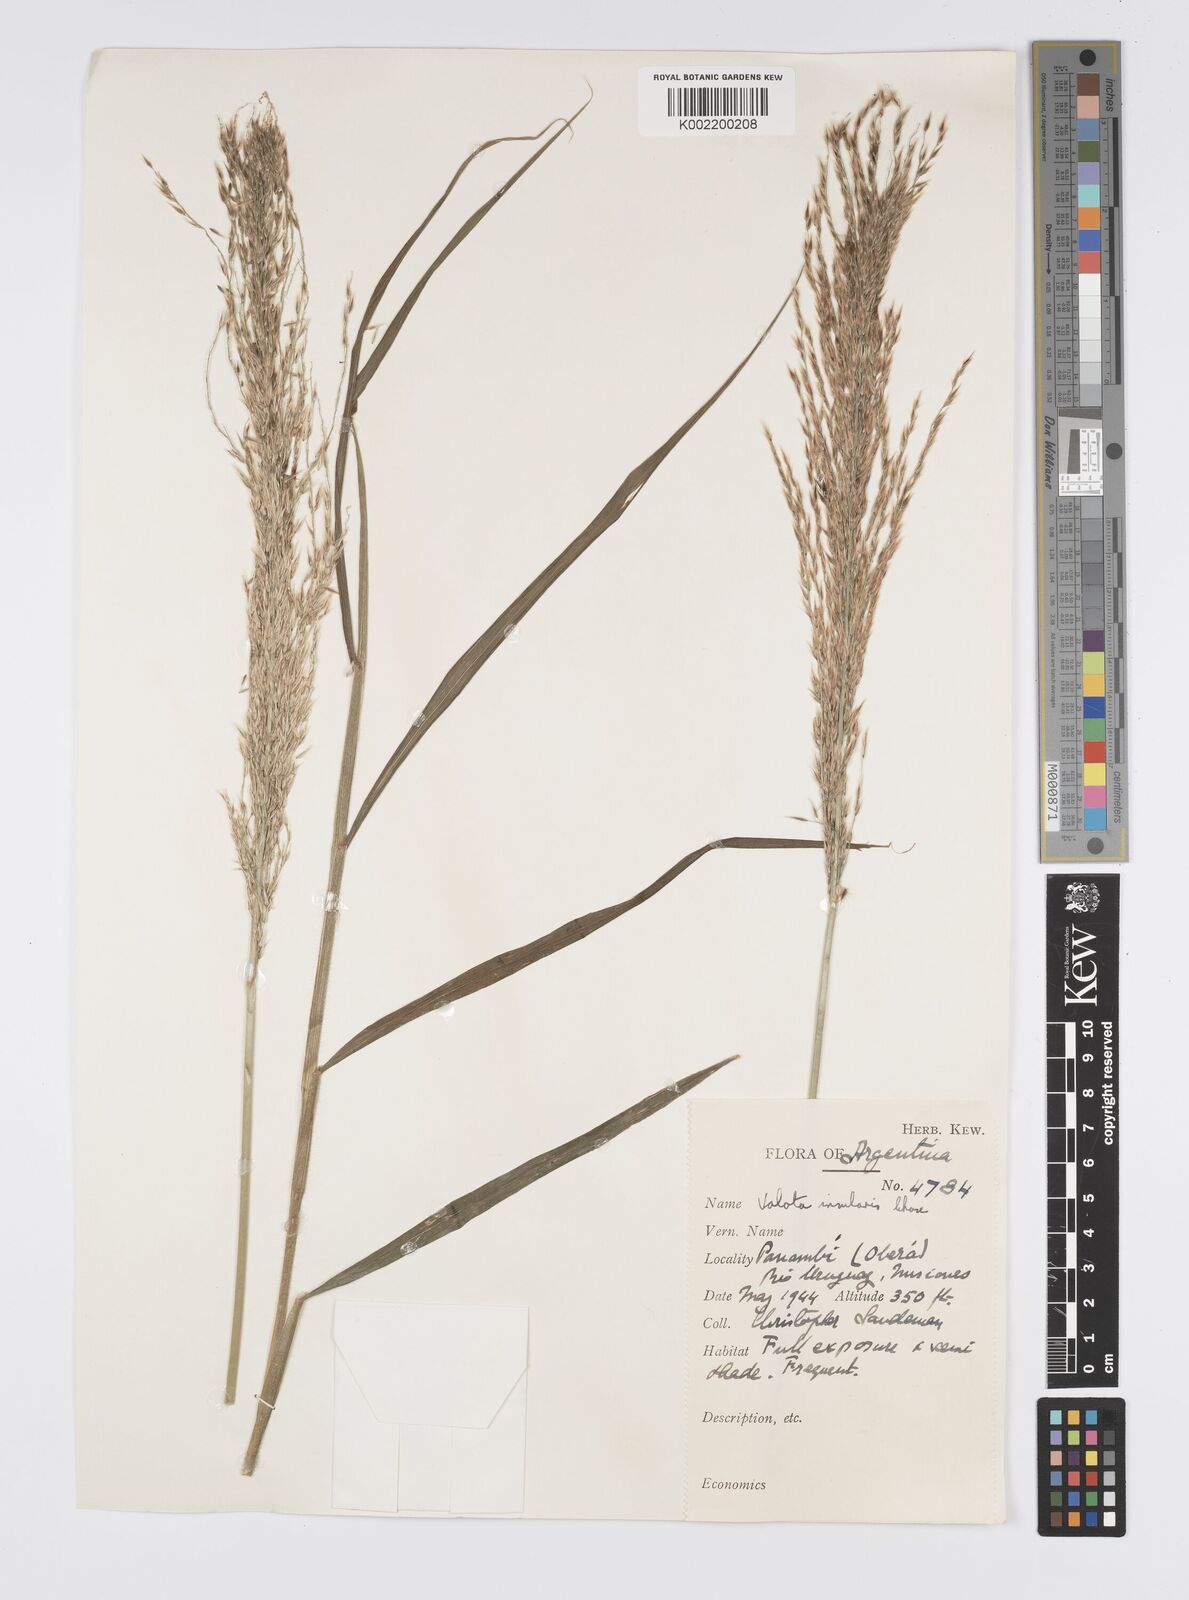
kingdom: Plantae
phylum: Tracheophyta
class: Liliopsida
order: Poales
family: Poaceae
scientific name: Poaceae
